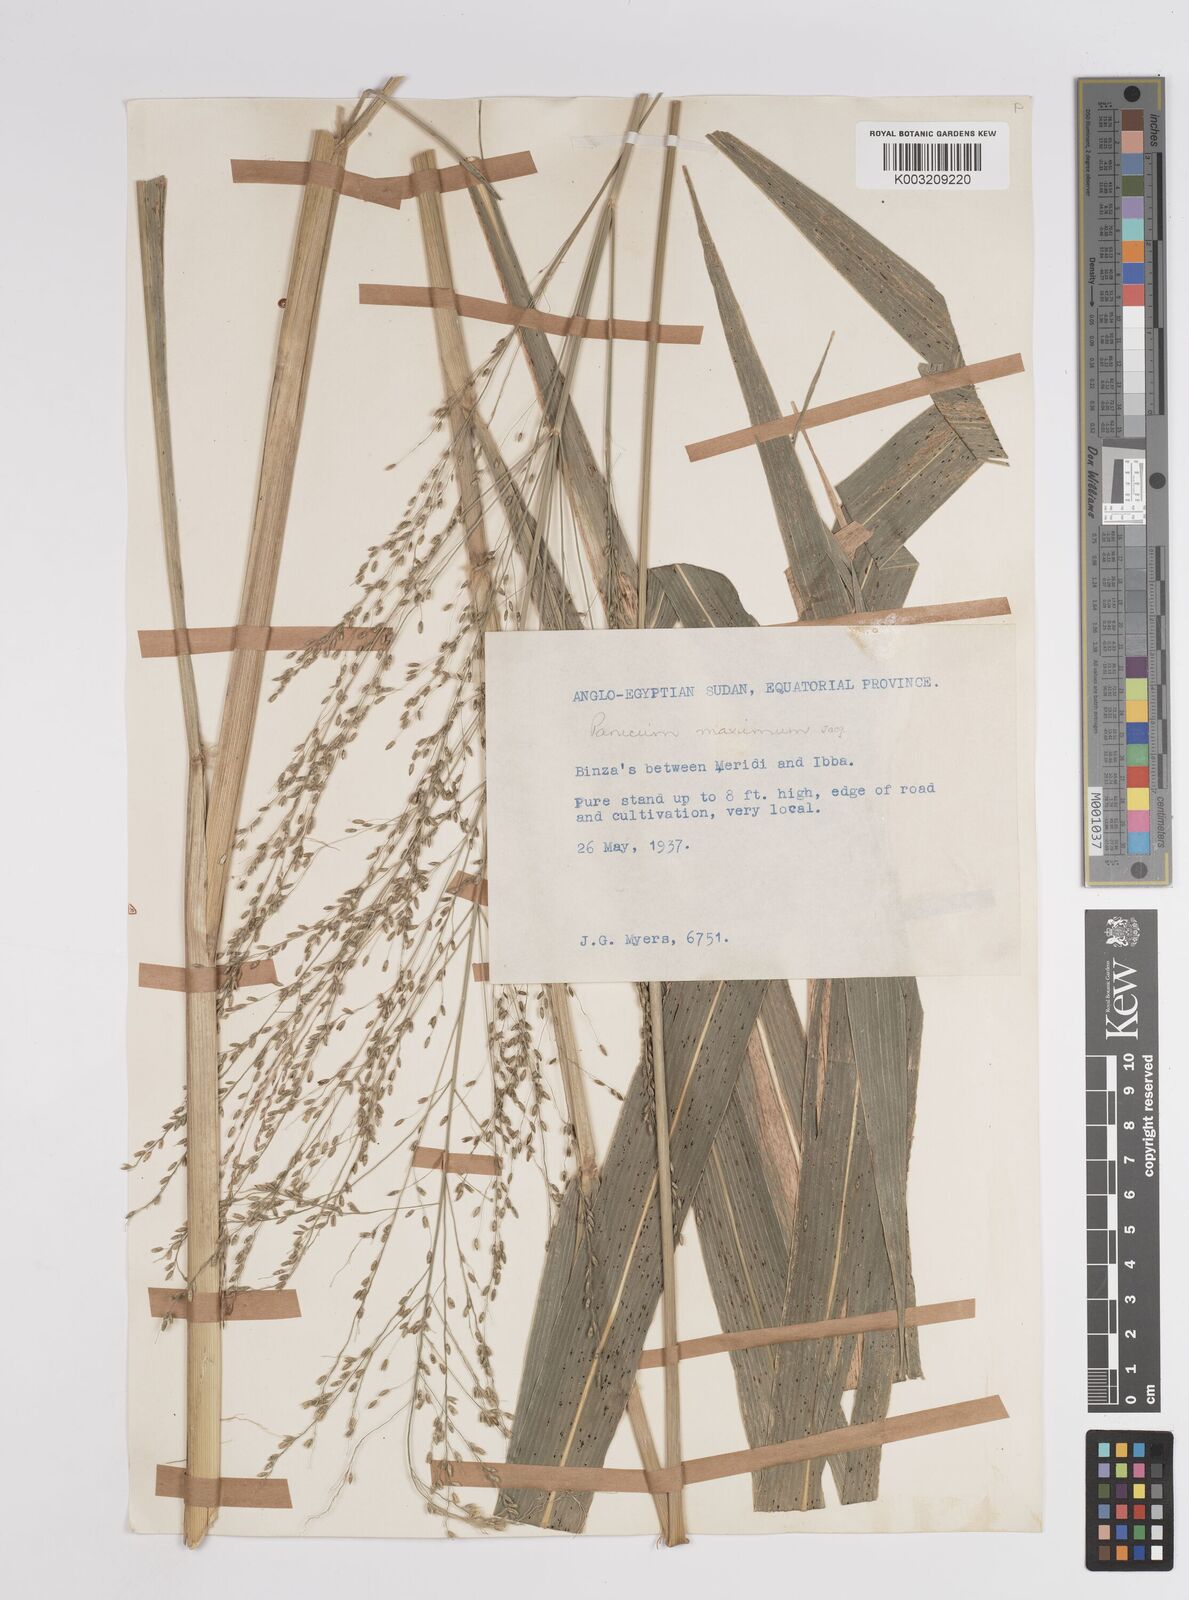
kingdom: Plantae
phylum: Tracheophyta
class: Liliopsida
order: Poales
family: Poaceae
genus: Megathyrsus
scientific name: Megathyrsus maximus
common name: Guineagrass
